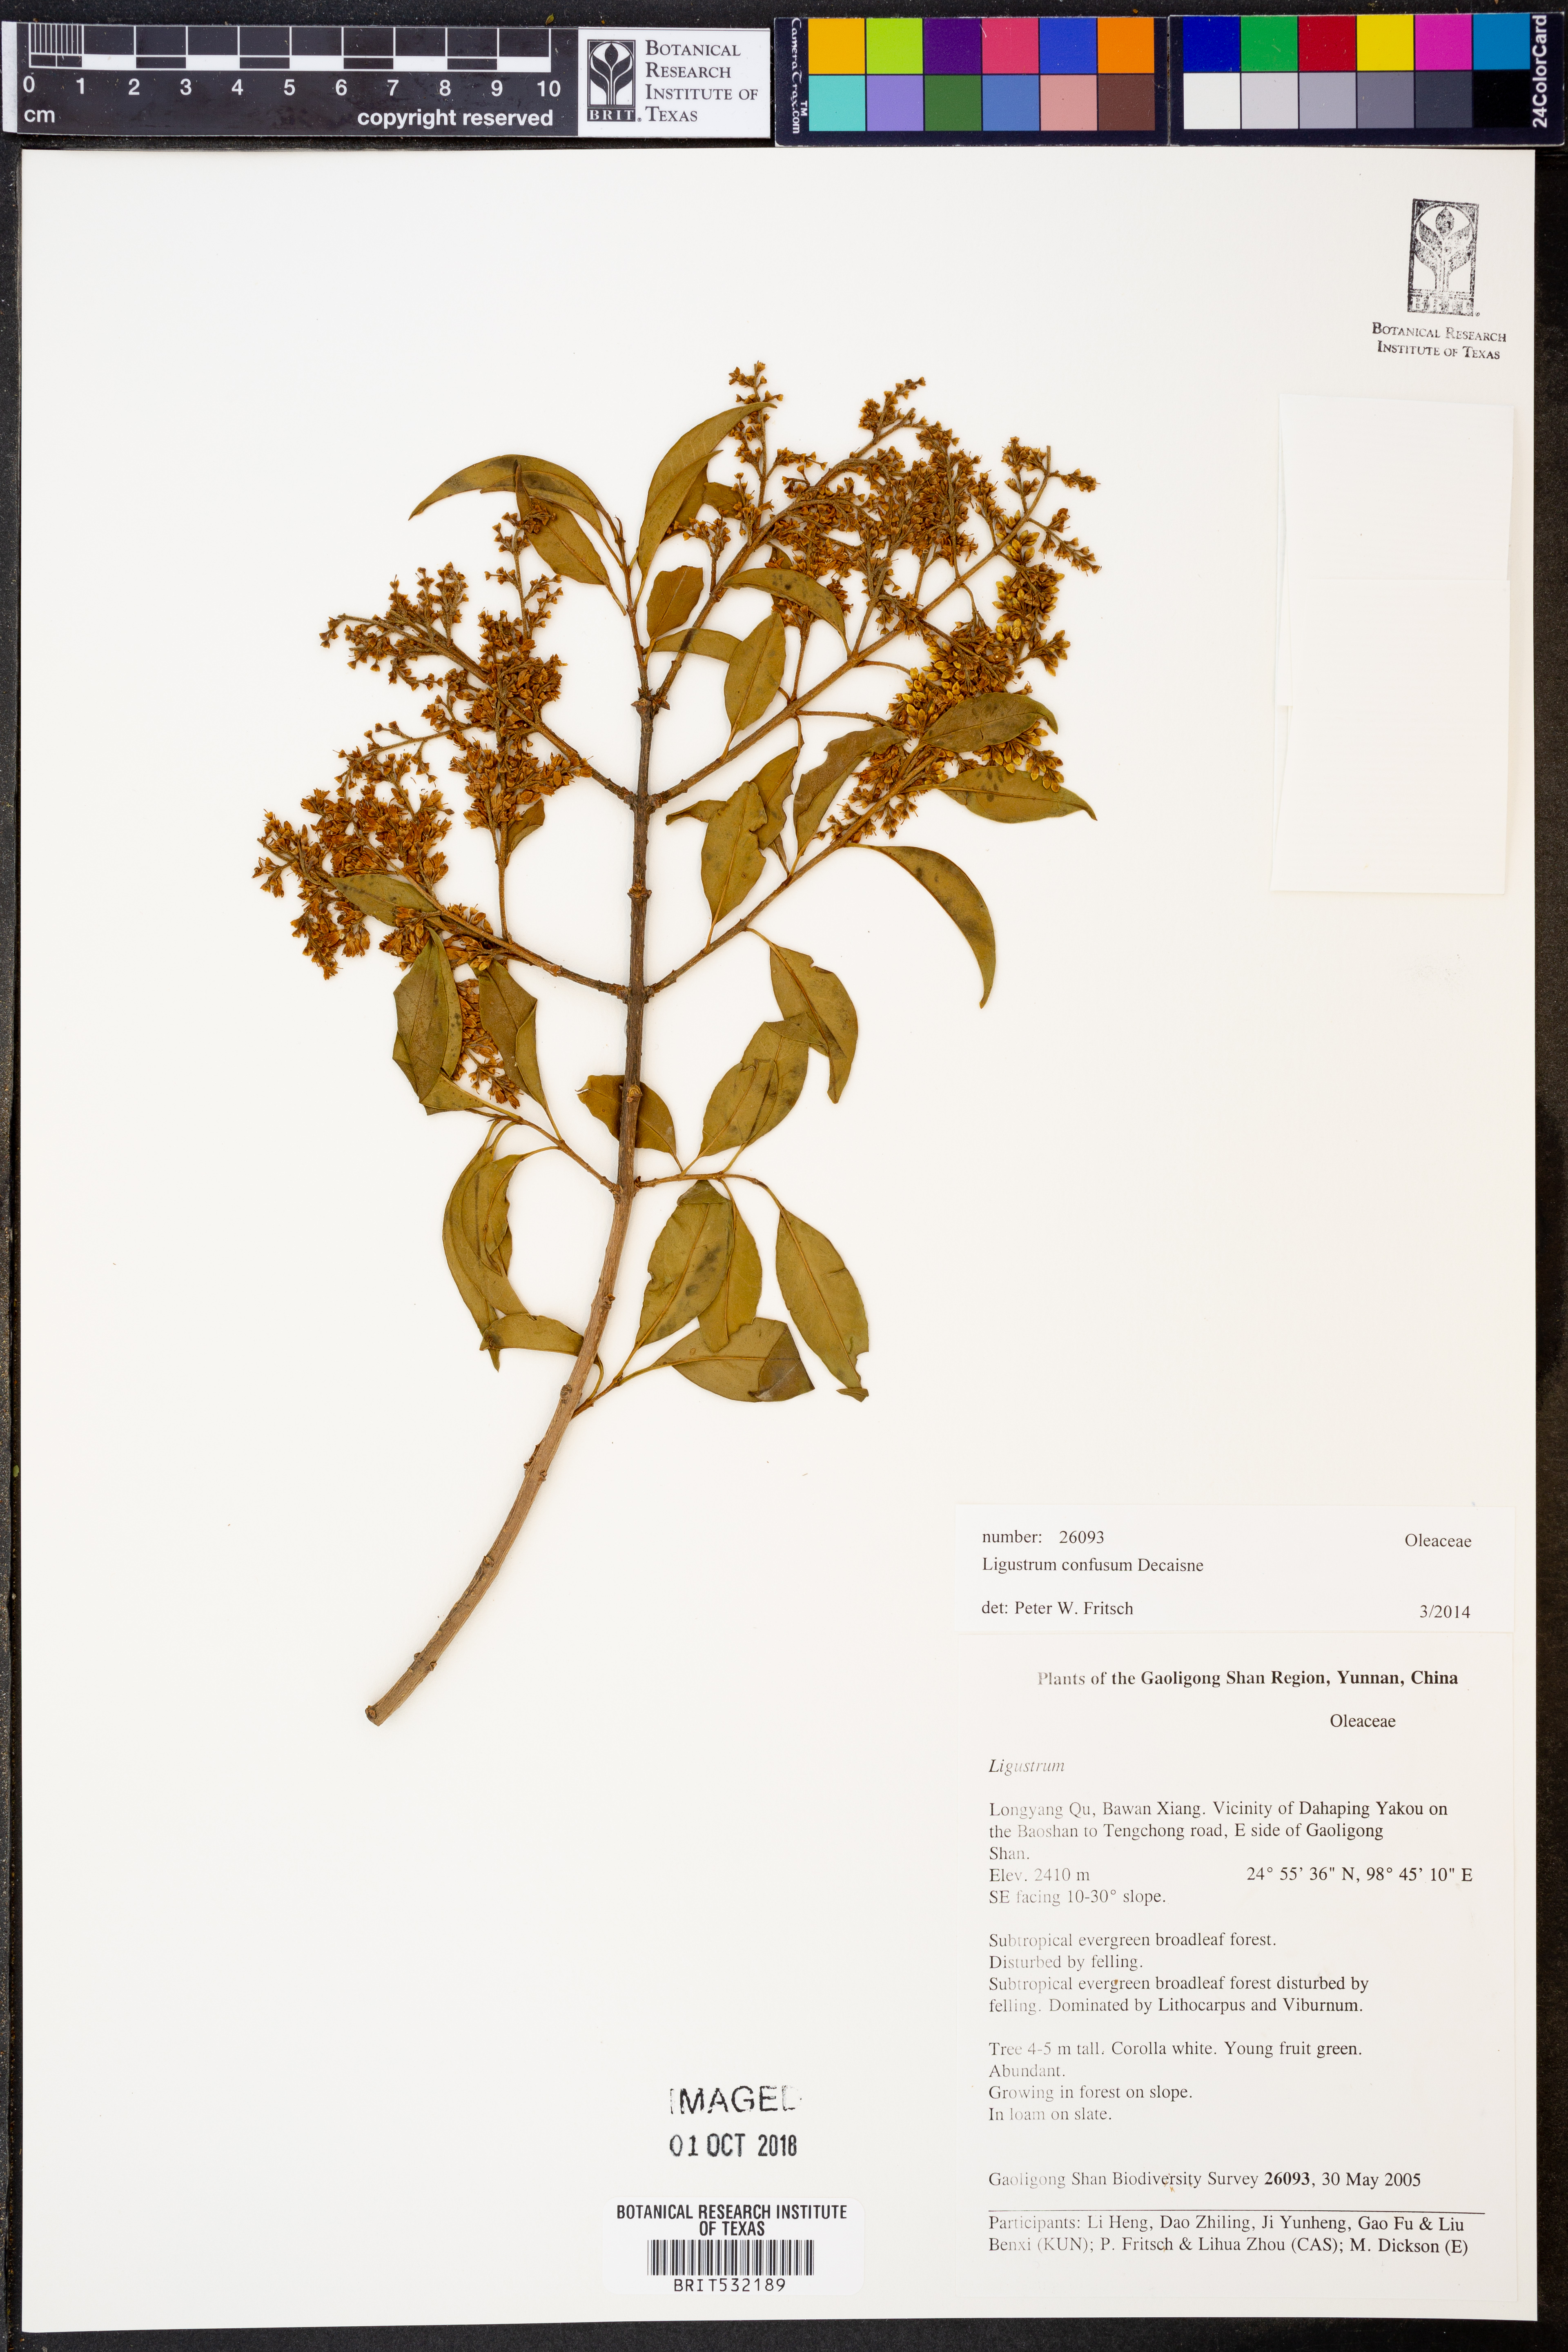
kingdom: Plantae
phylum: Tracheophyta
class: Magnoliopsida
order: Lamiales
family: Oleaceae
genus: Ligustrum
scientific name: Ligustrum confusum
